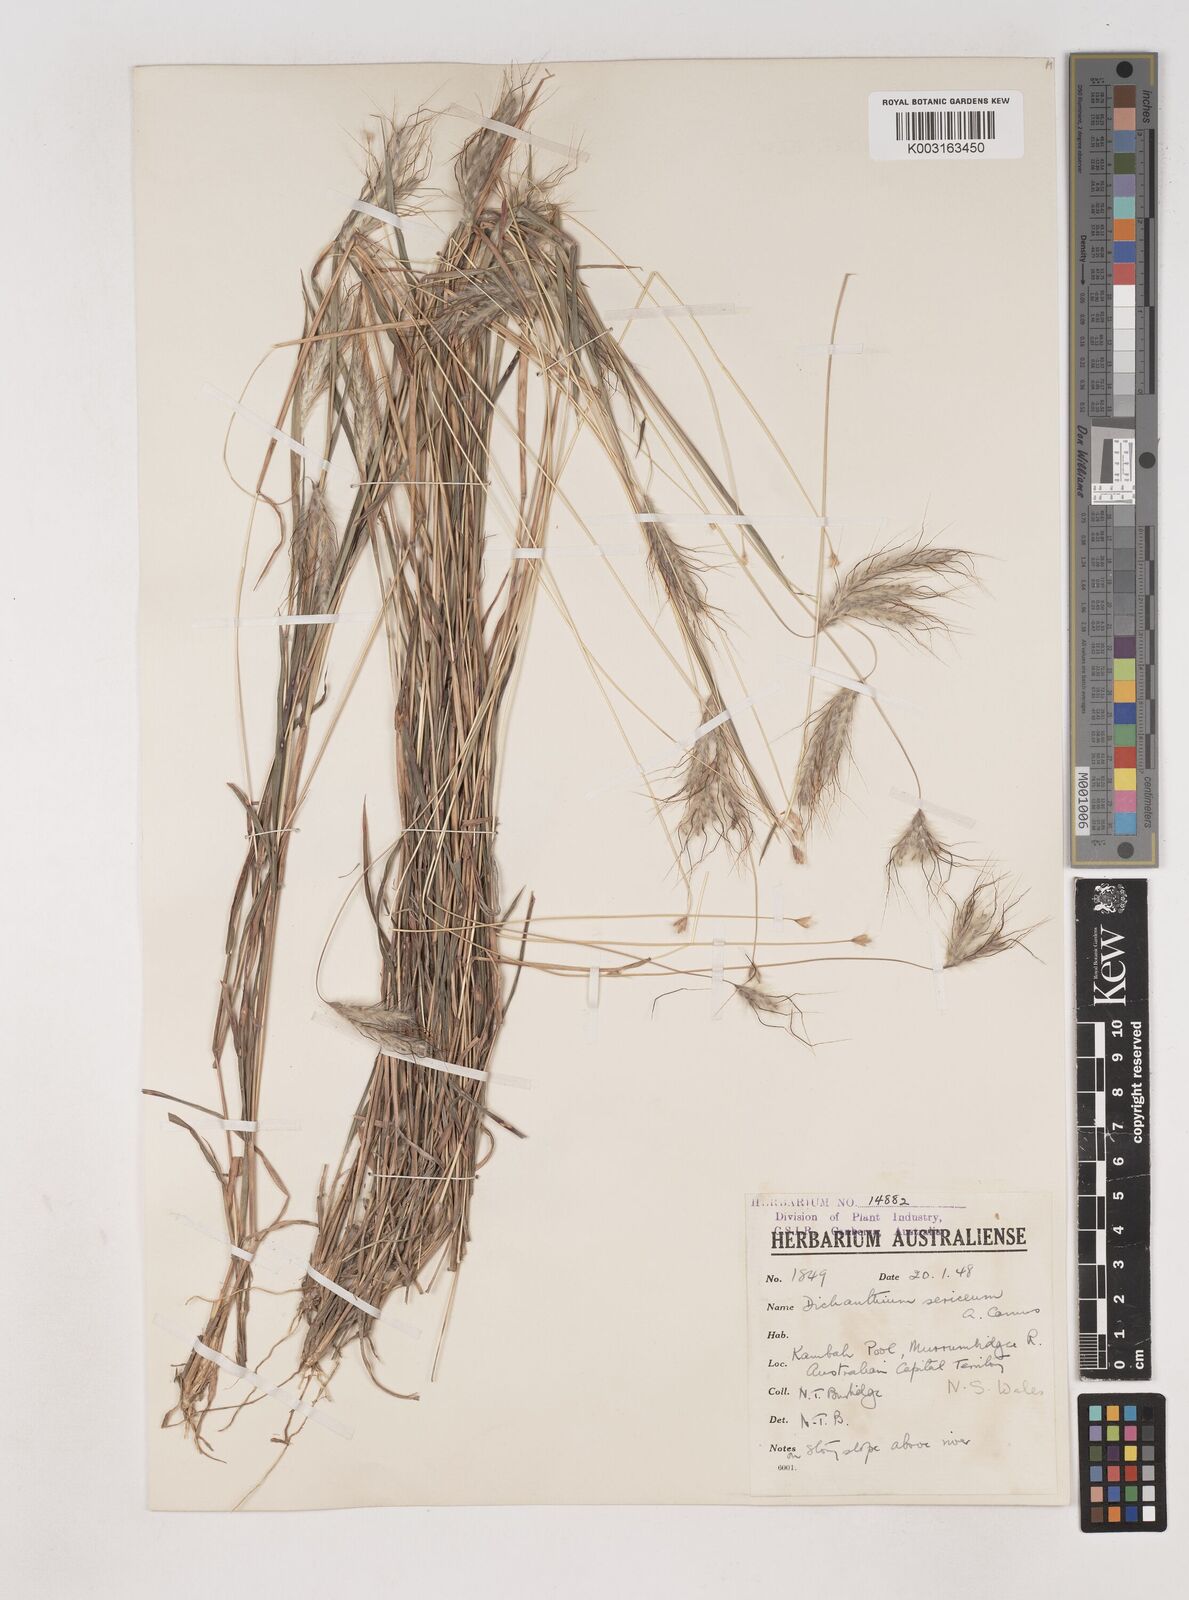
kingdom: Plantae
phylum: Tracheophyta
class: Liliopsida
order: Poales
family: Poaceae
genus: Dichanthium
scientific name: Dichanthium sericeum
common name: Silky bluestem
